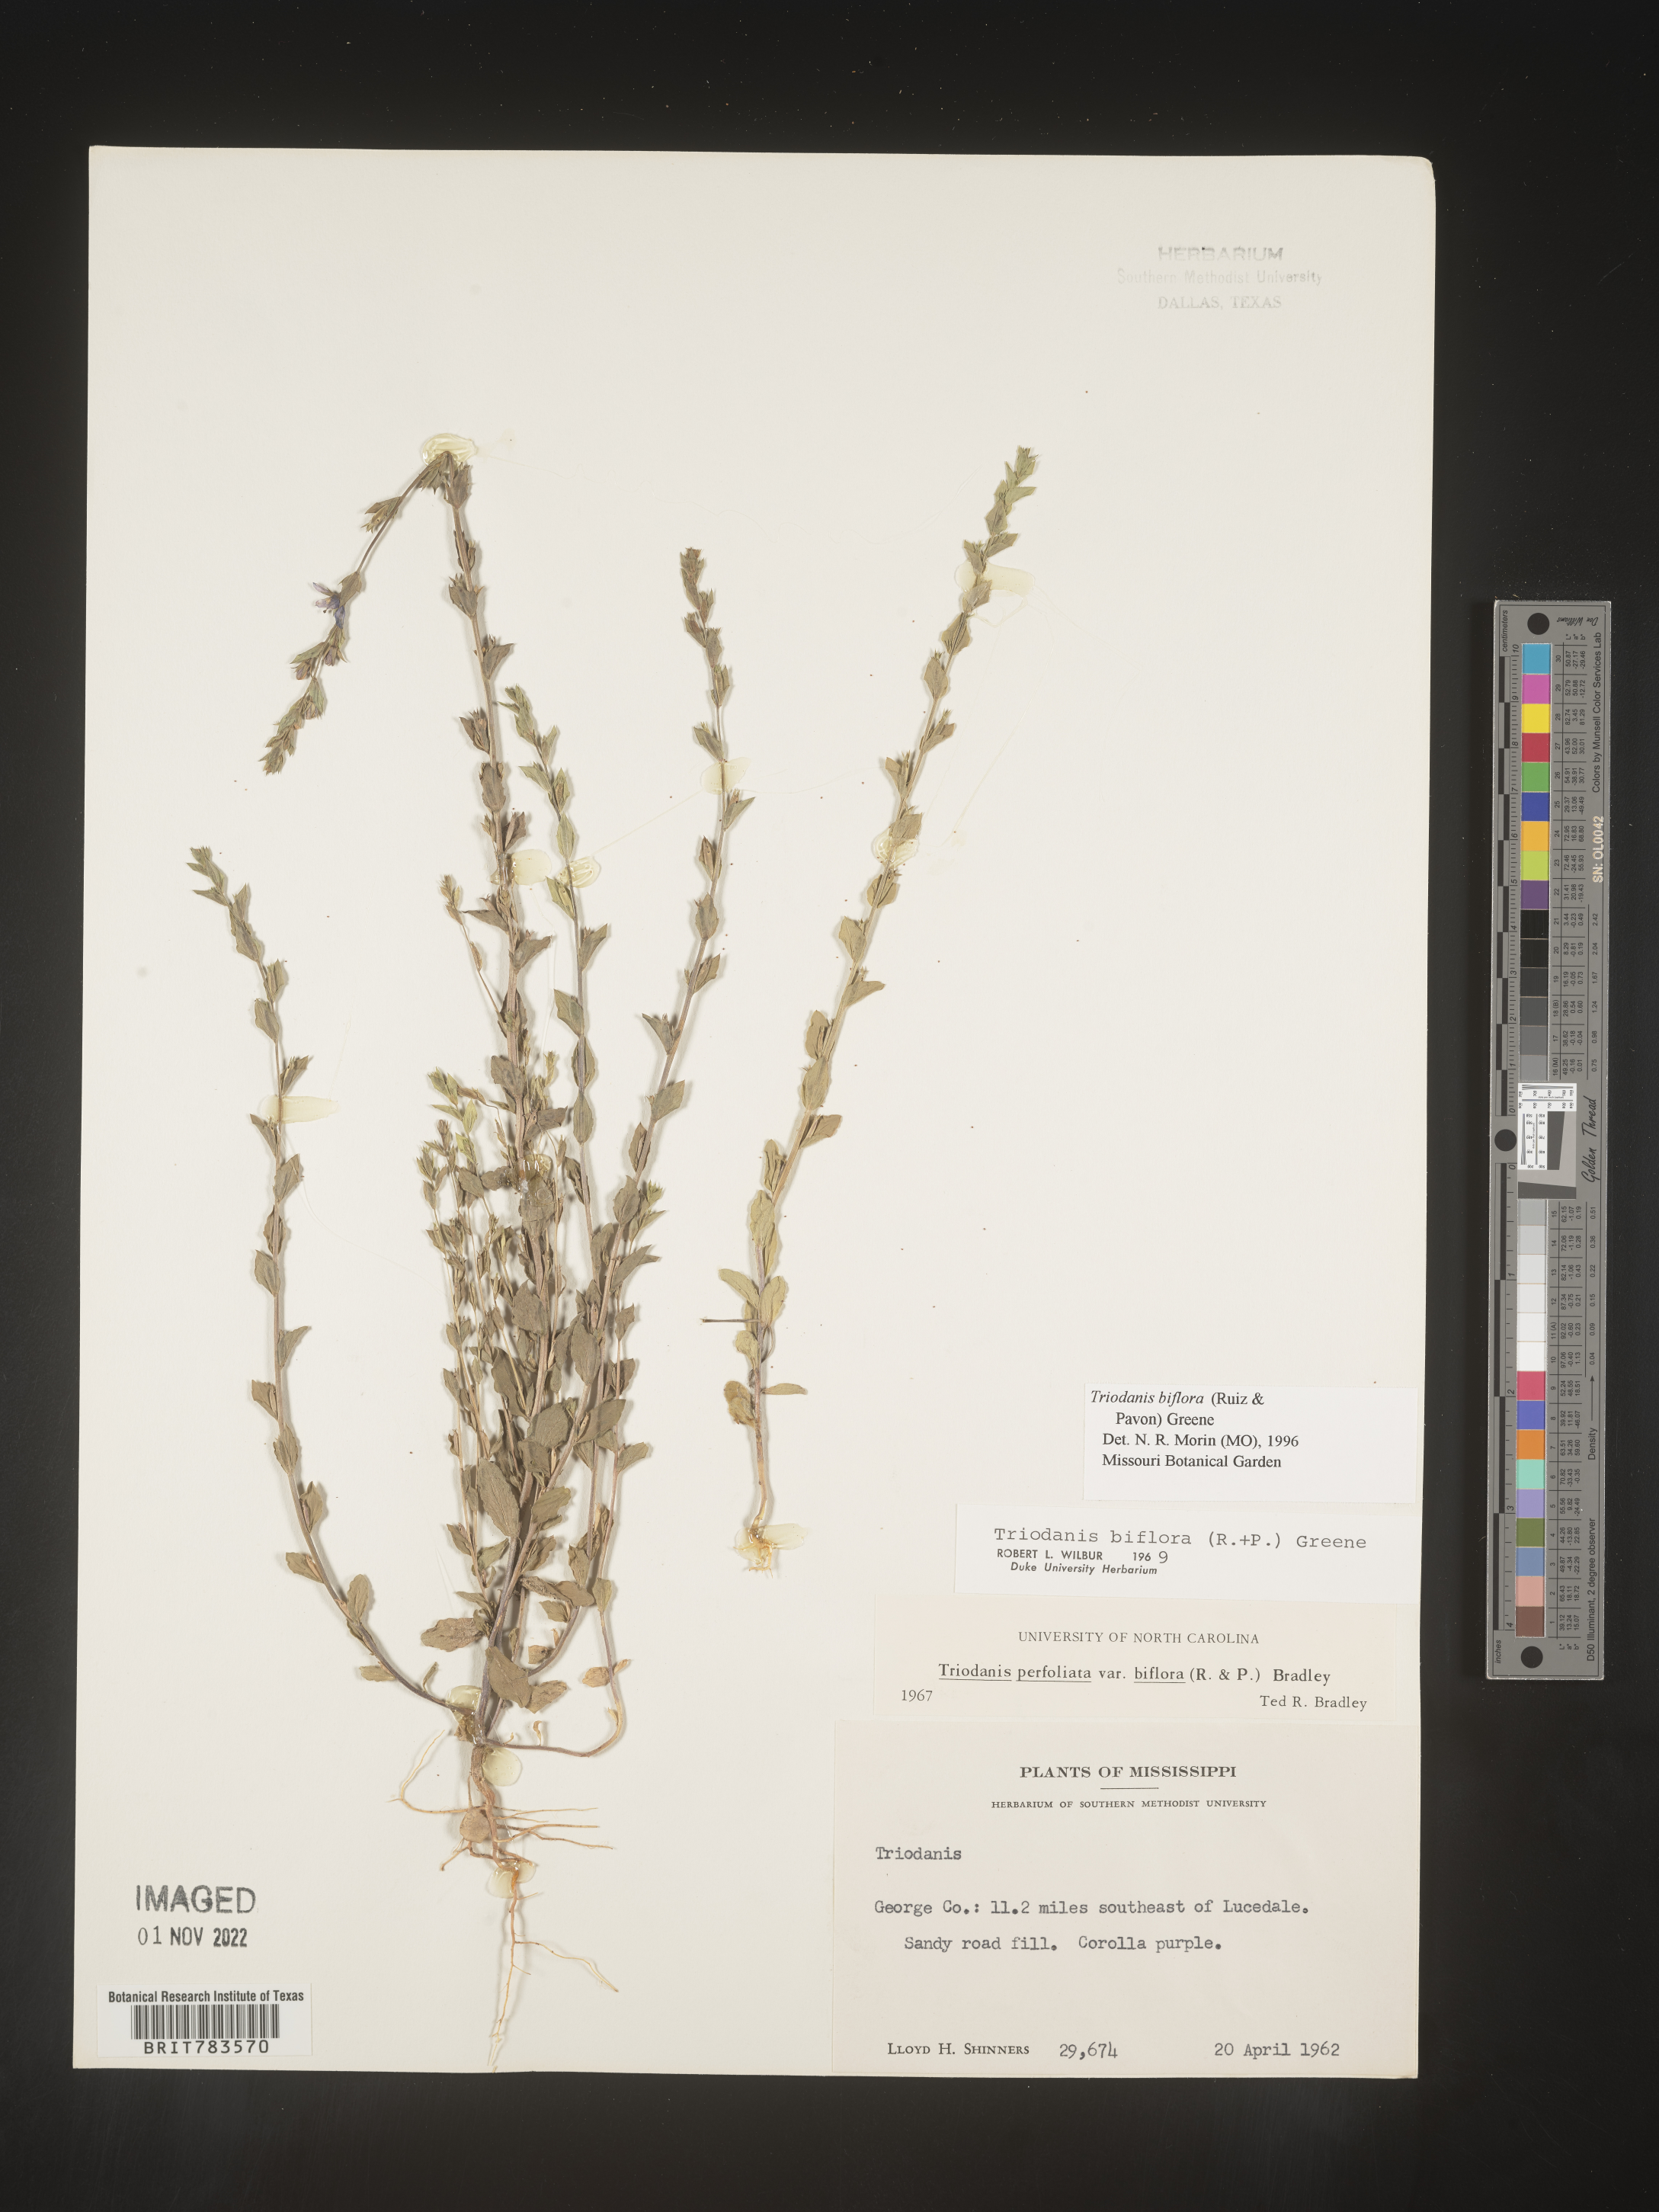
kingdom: Plantae
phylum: Tracheophyta
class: Magnoliopsida
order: Asterales
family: Campanulaceae
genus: Triodanis
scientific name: Triodanis perfoliata
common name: Clasping venus' looking-glass
